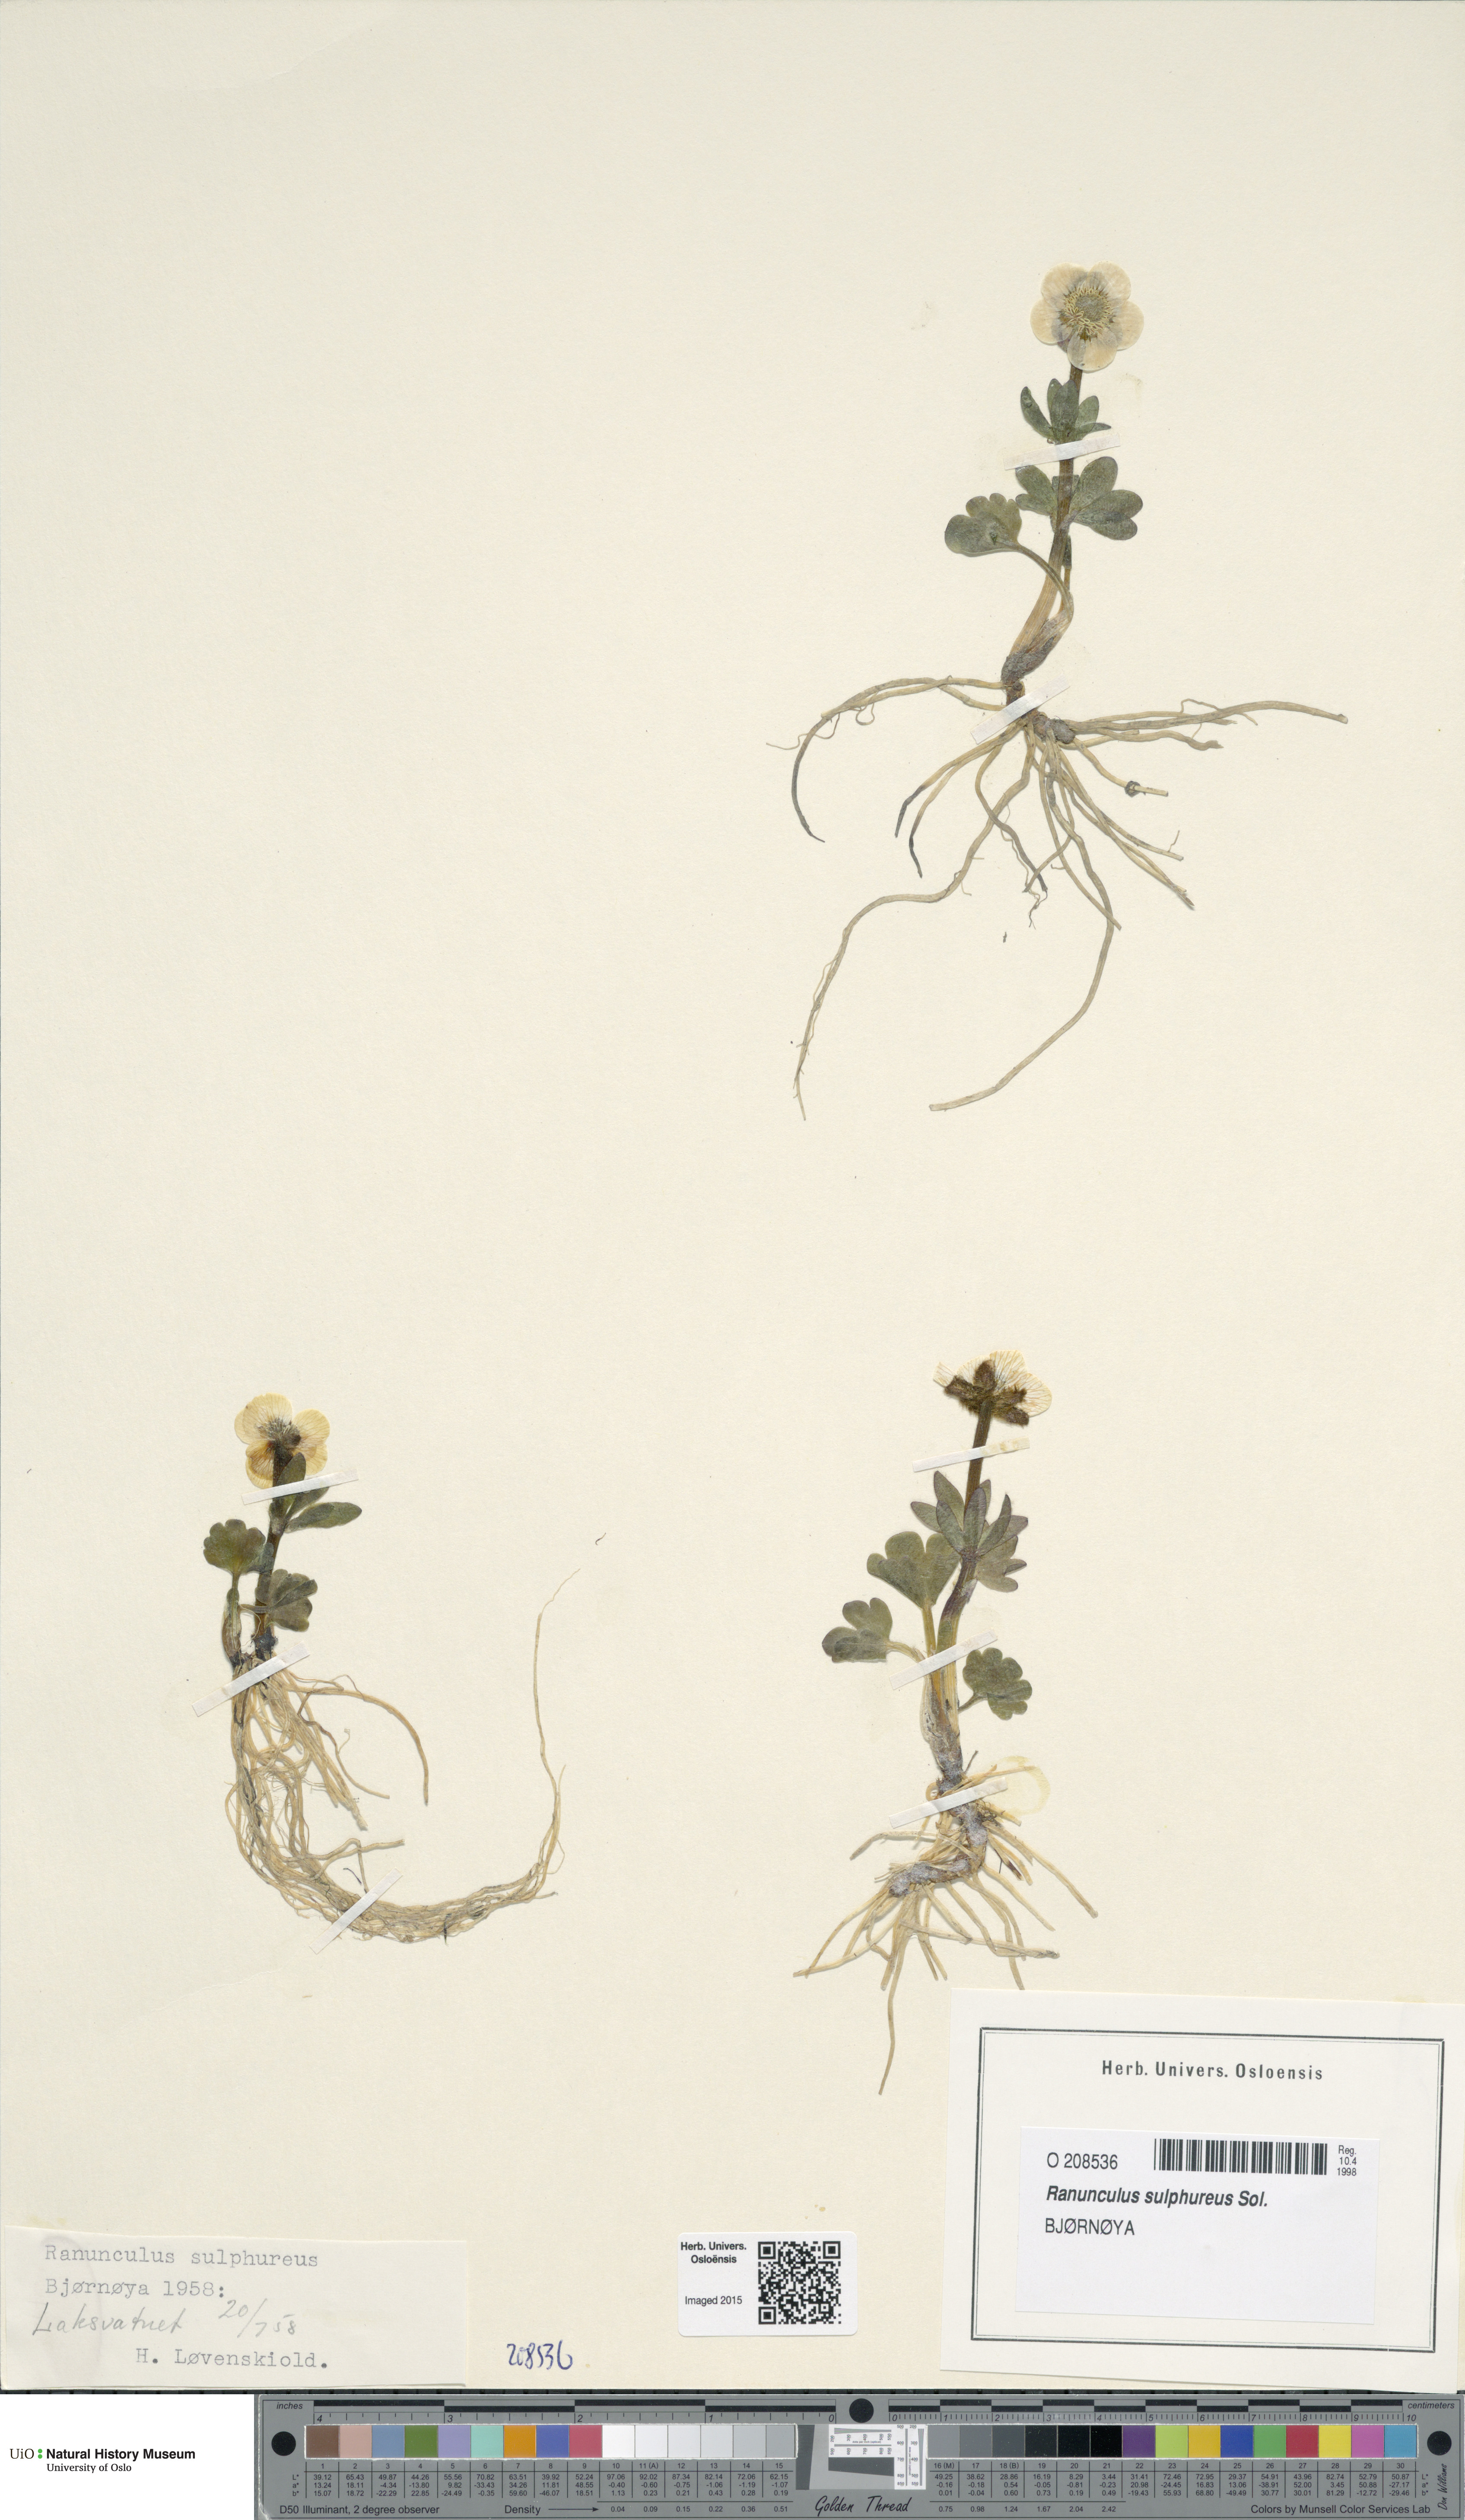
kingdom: Plantae
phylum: Tracheophyta
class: Magnoliopsida
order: Ranunculales
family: Ranunculaceae
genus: Ranunculus
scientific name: Ranunculus sulphureus
